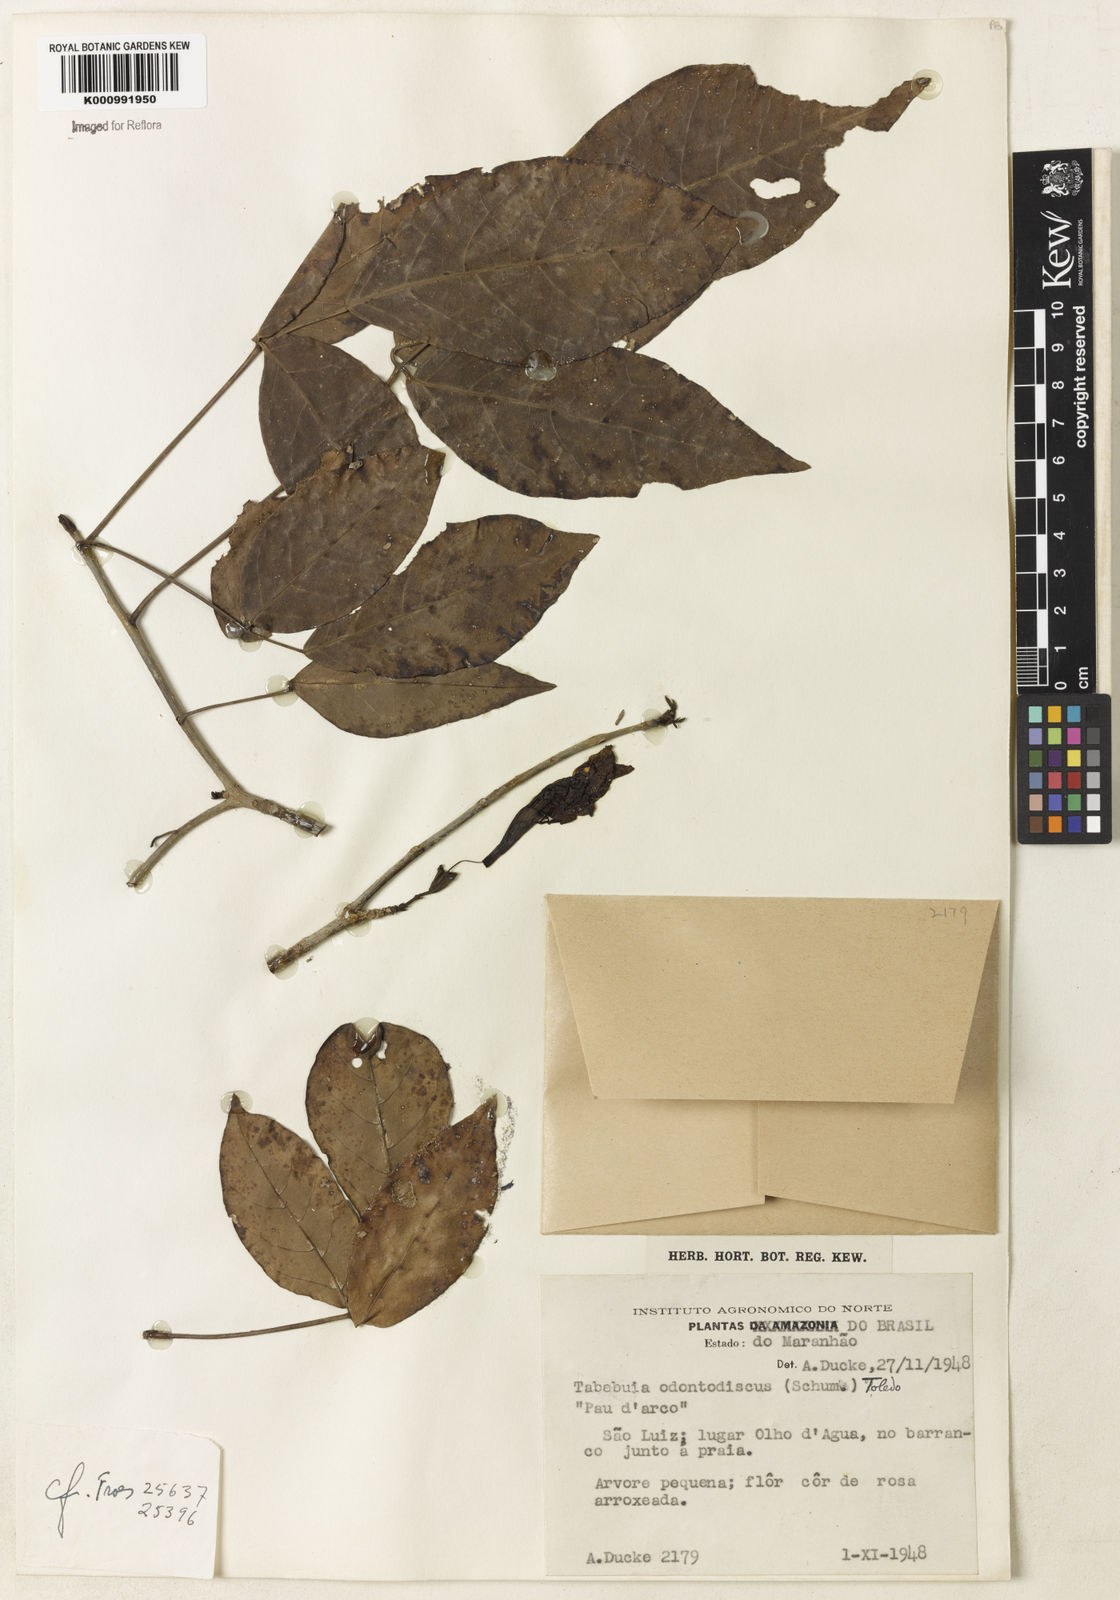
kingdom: Plantae
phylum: Tracheophyta
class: Magnoliopsida
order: Lamiales
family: Bignoniaceae
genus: Tabebuia
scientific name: Tabebuia roseoalba
